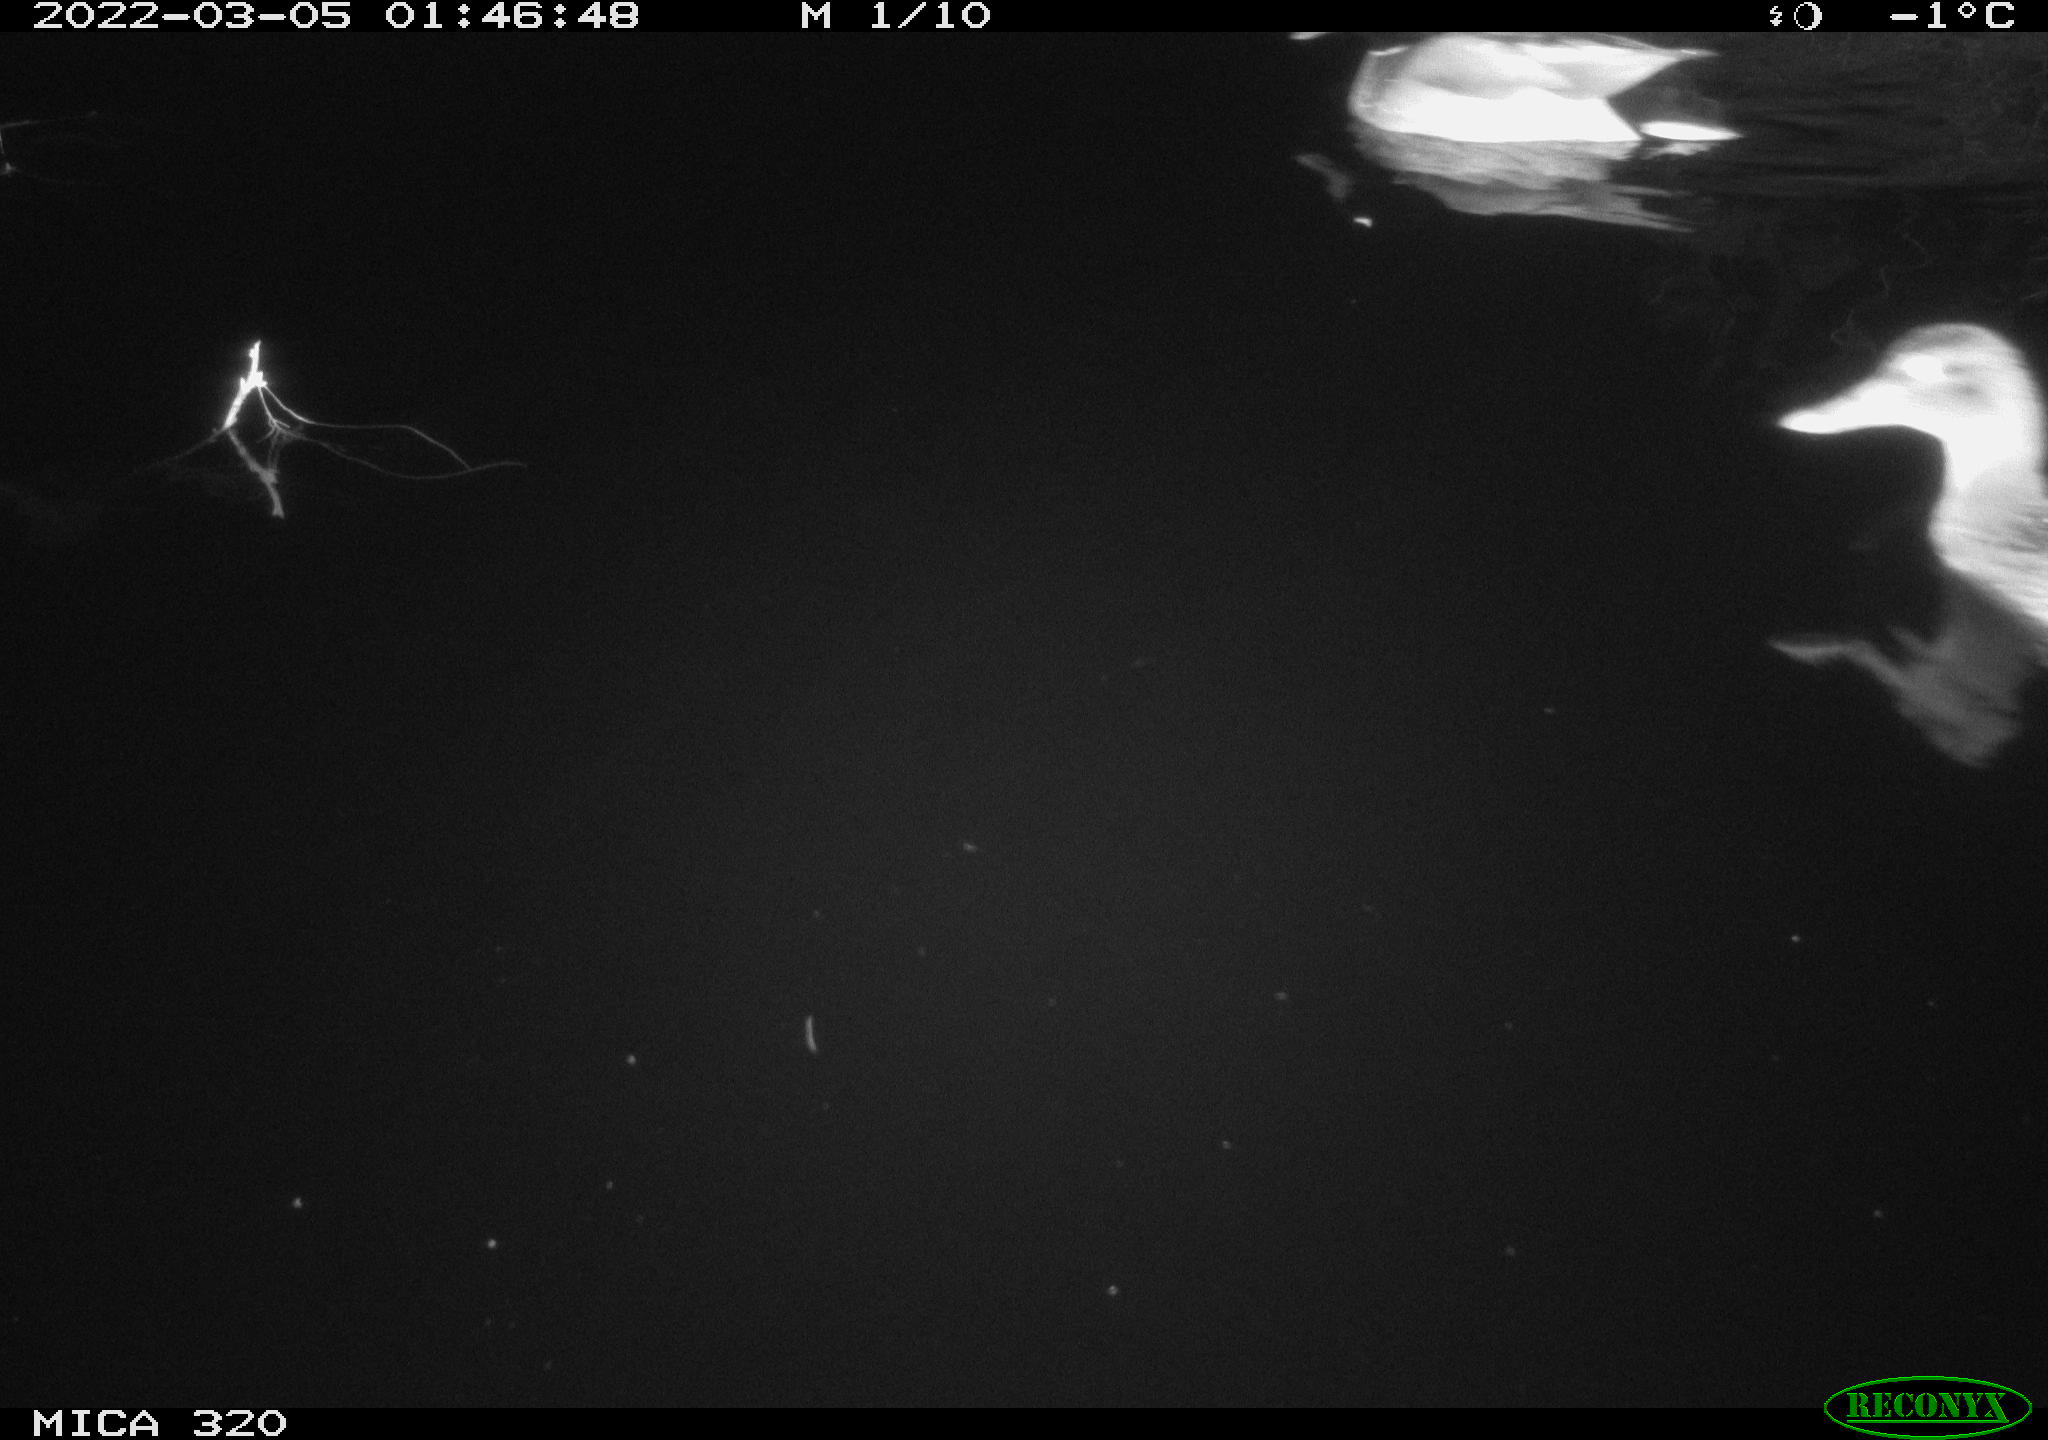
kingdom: Animalia
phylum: Chordata
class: Aves
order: Anseriformes
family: Anatidae
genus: Anas
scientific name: Anas platyrhynchos
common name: Mallard
